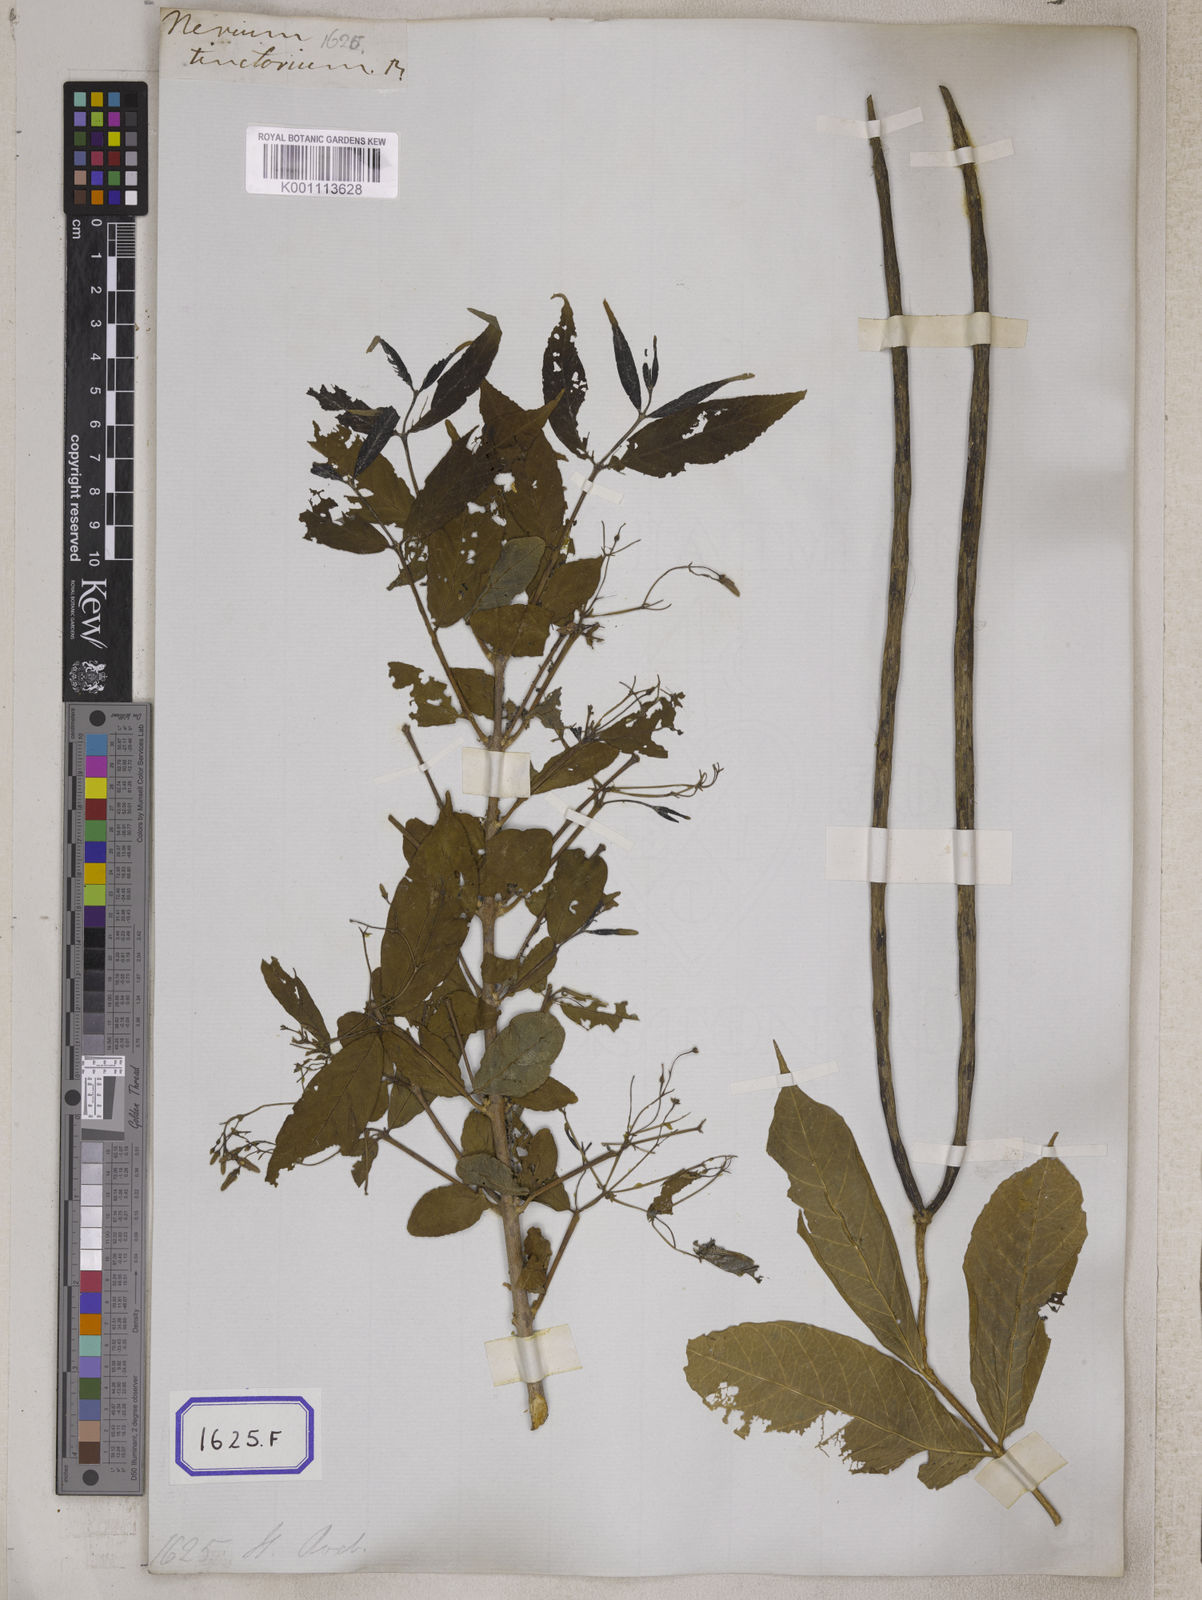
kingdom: Plantae
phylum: Tracheophyta
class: Magnoliopsida
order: Gentianales
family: Apocynaceae
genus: Wrightia
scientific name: Wrightia tinctoria
